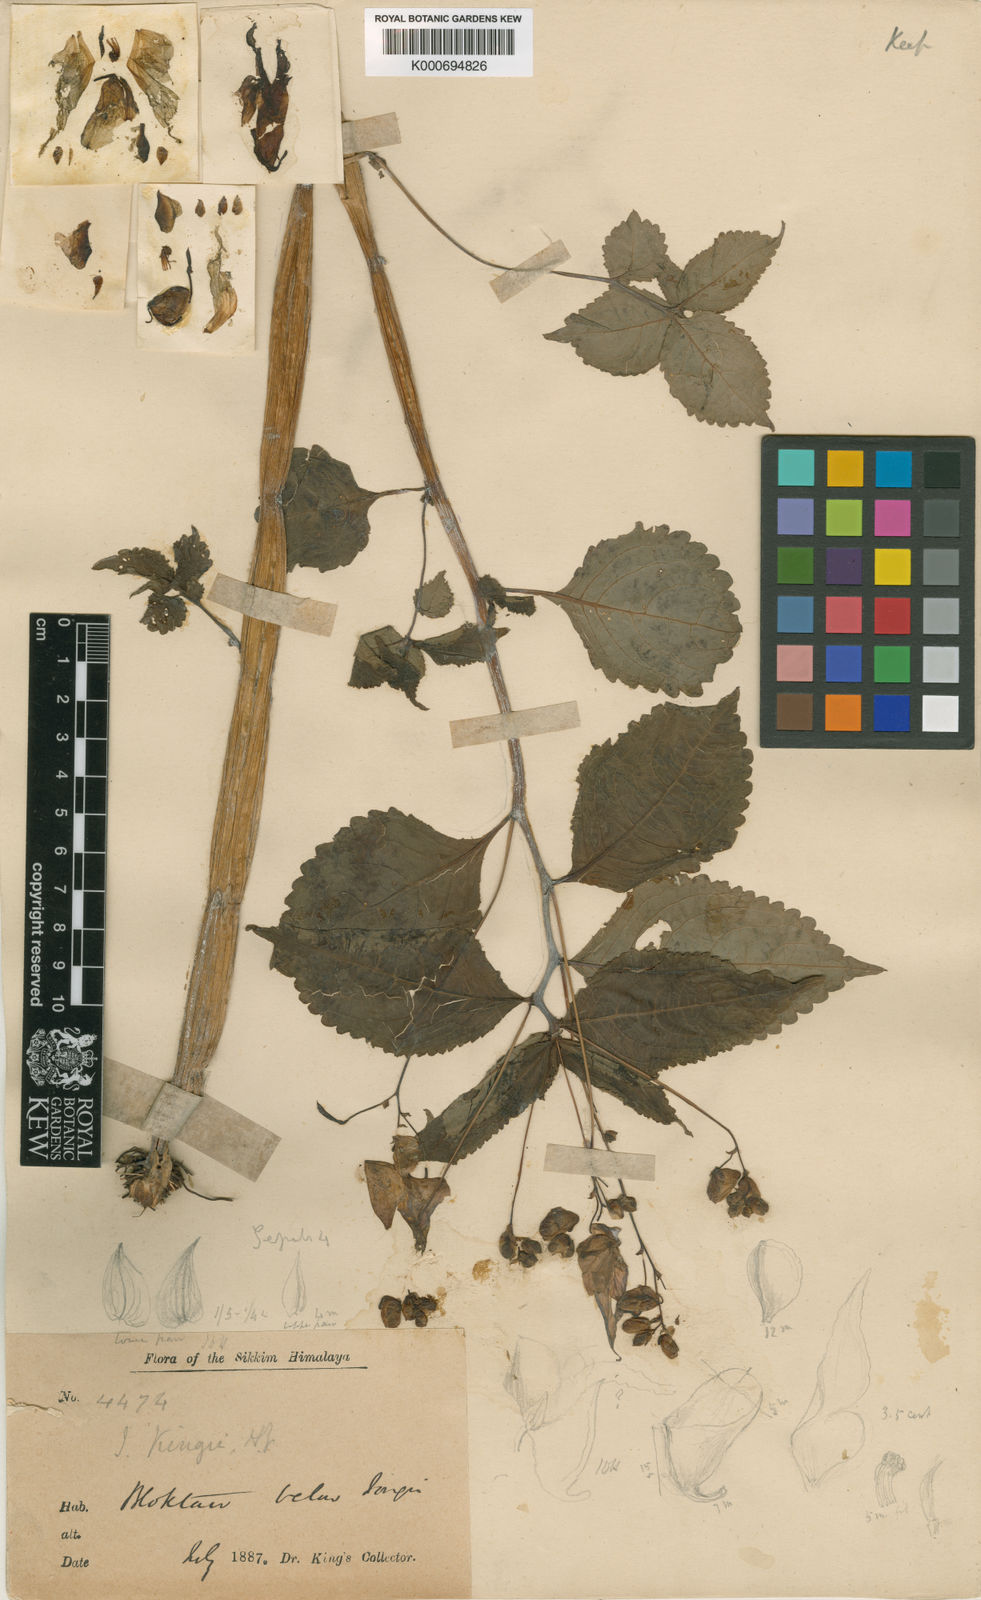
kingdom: Plantae
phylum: Tracheophyta
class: Magnoliopsida
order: Ericales
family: Balsaminaceae
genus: Impatiens
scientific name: Impatiens kingii
